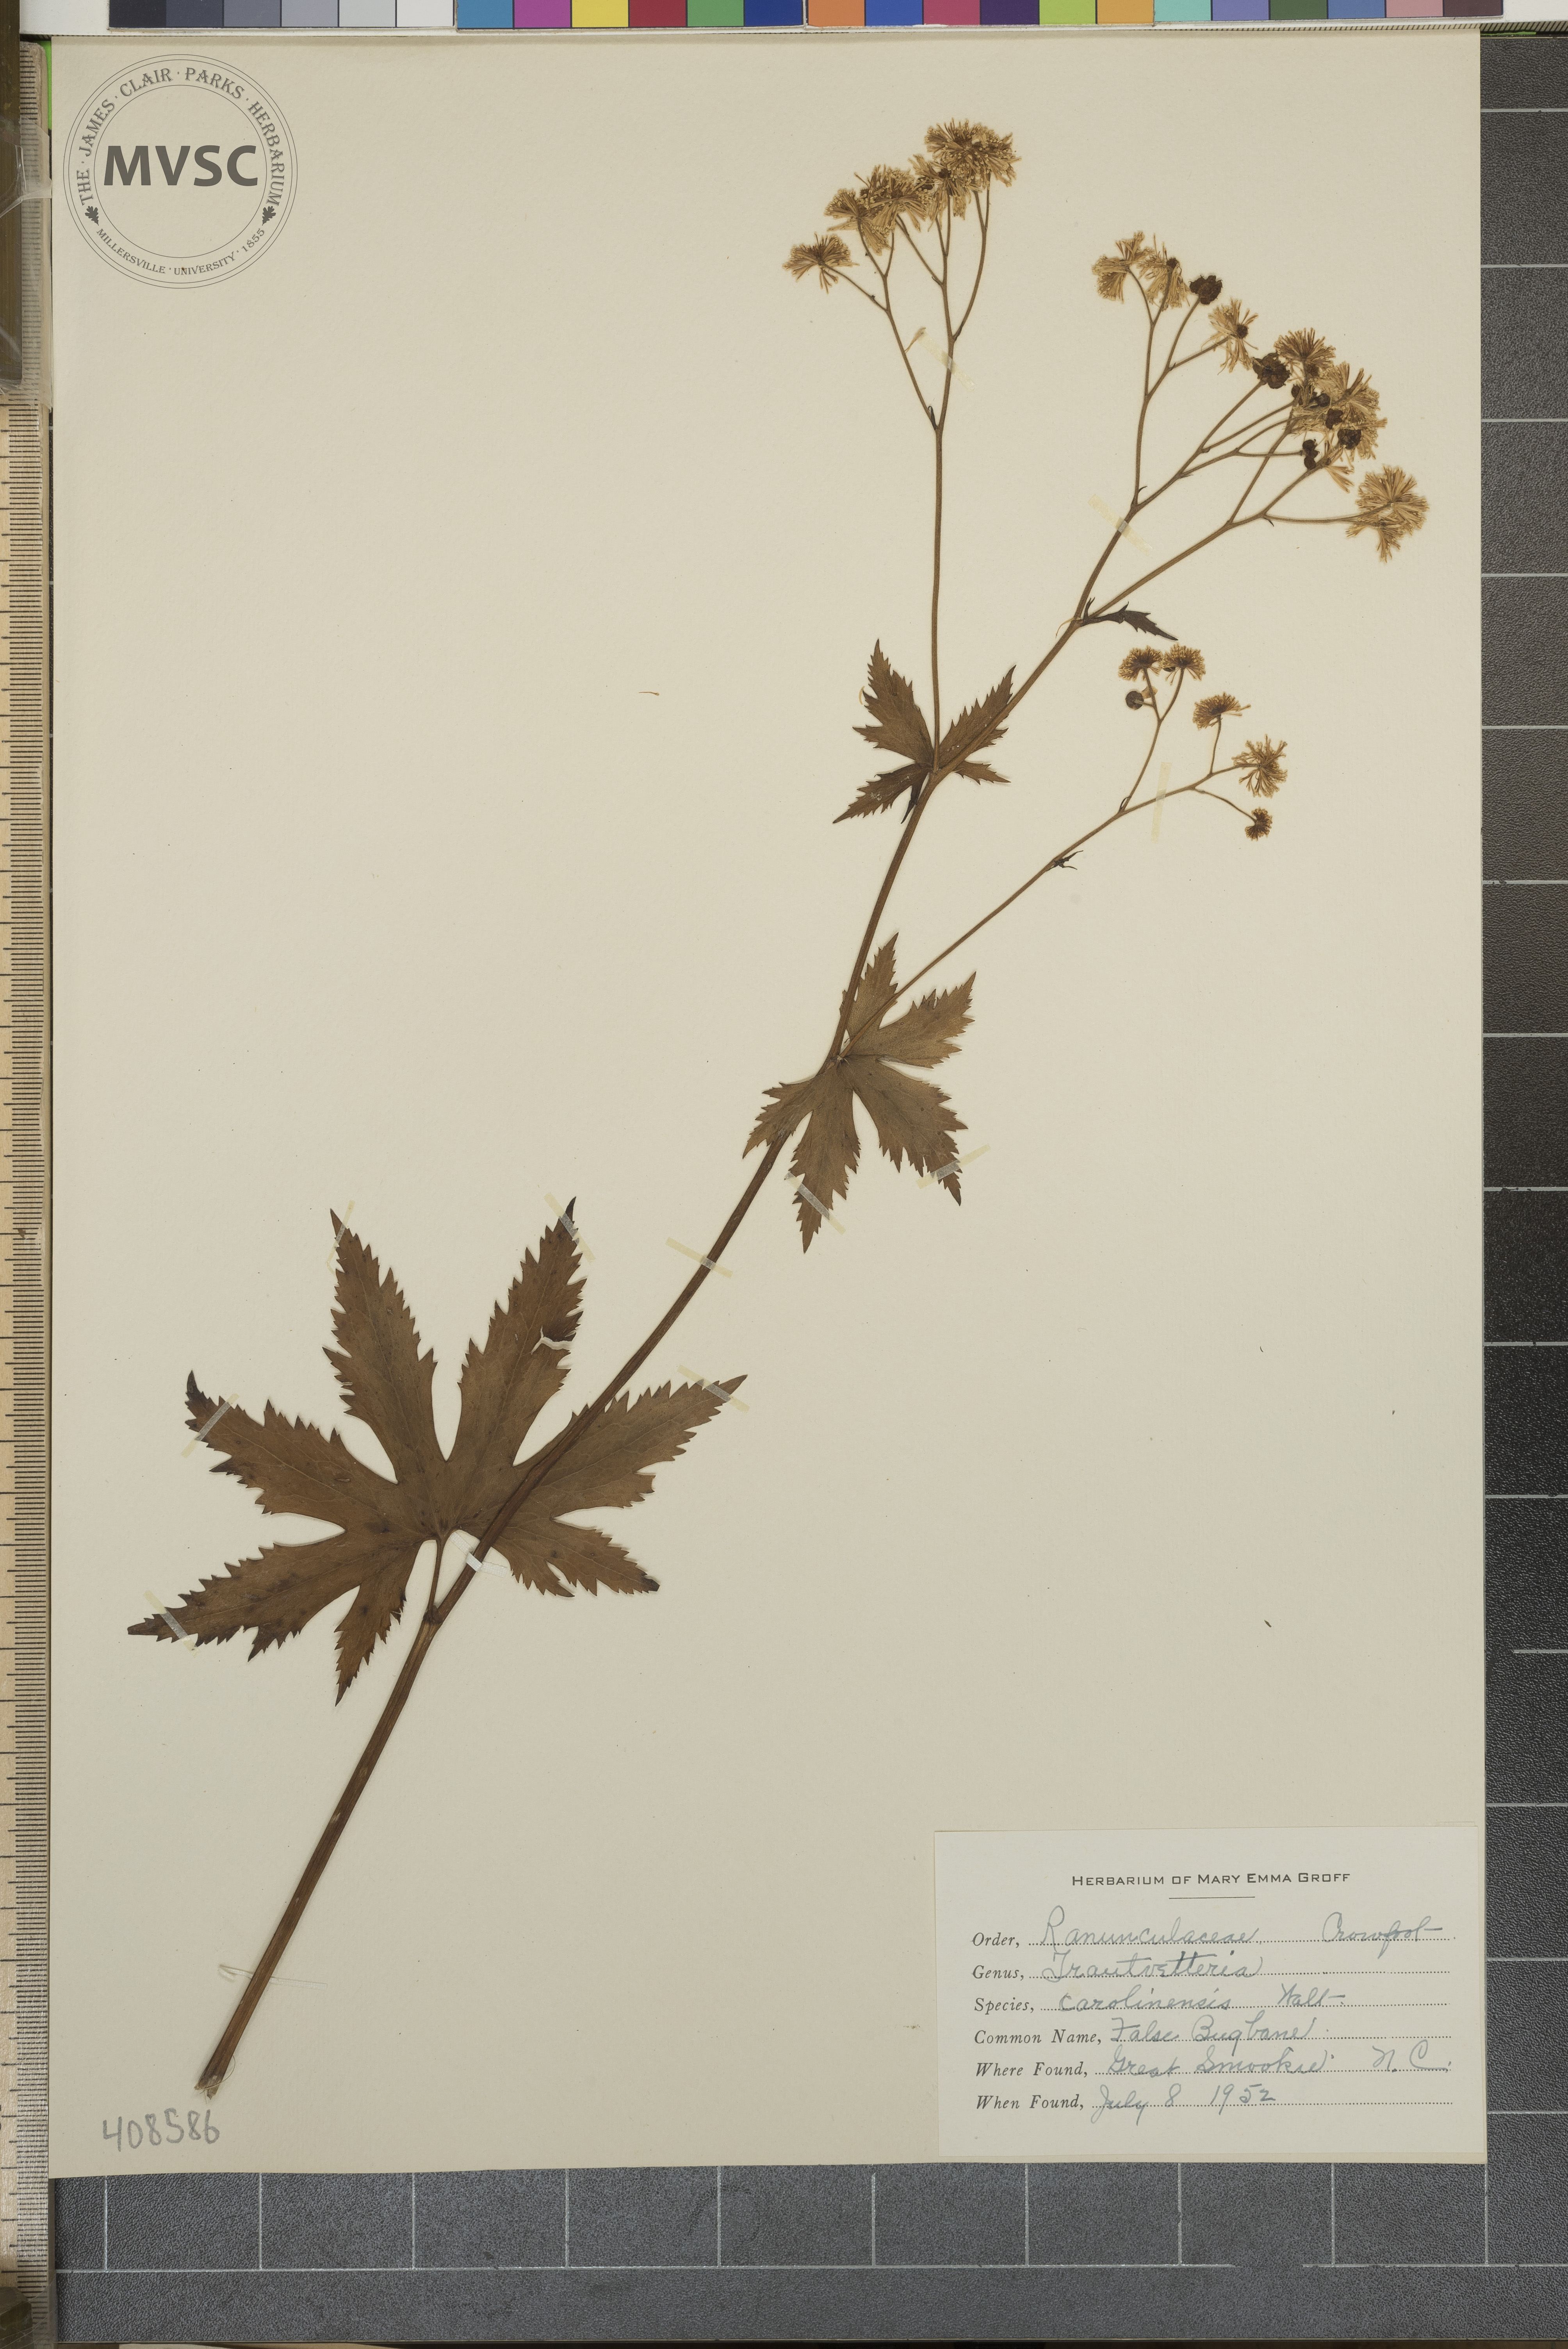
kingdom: Plantae
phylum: Tracheophyta
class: Magnoliopsida
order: Ranunculales
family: Ranunculaceae
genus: Trautvetteria
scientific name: Trautvetteria carolinensis
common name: False Bugbane
